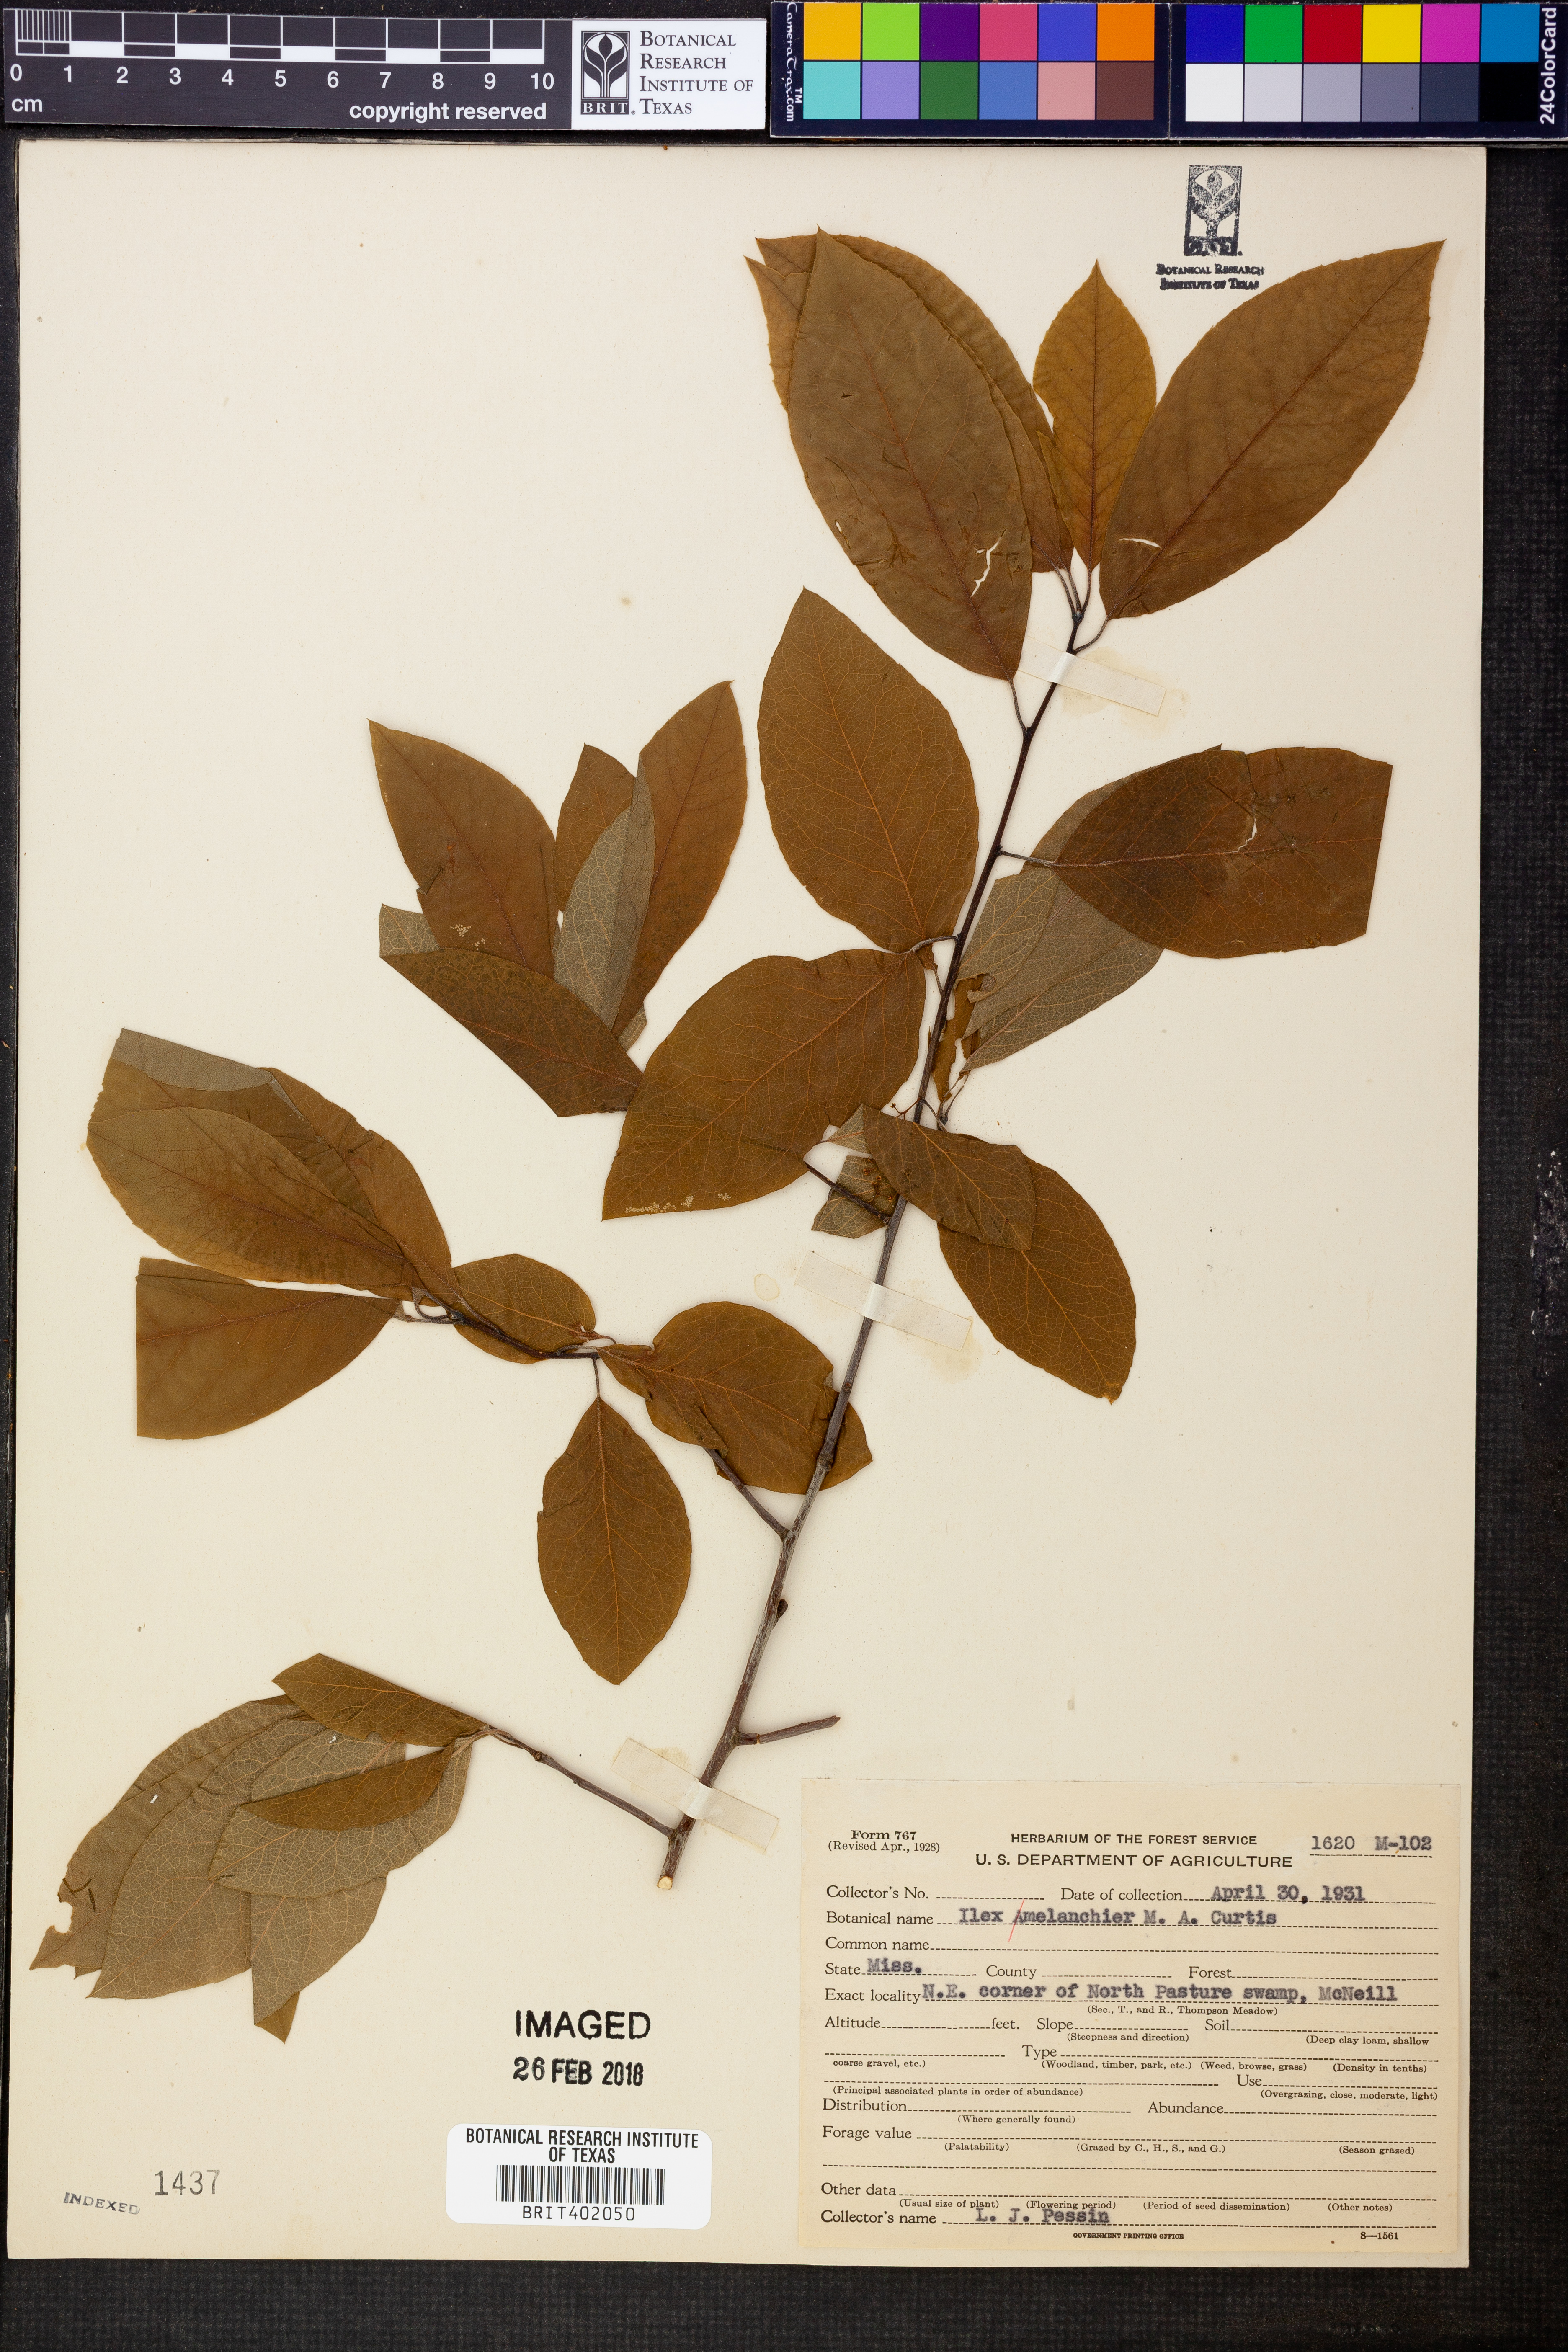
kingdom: Plantae
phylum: Tracheophyta
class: Magnoliopsida
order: Aquifoliales
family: Aquifoliaceae
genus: Ilex
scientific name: Ilex amelanchier
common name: Sarvis holly
